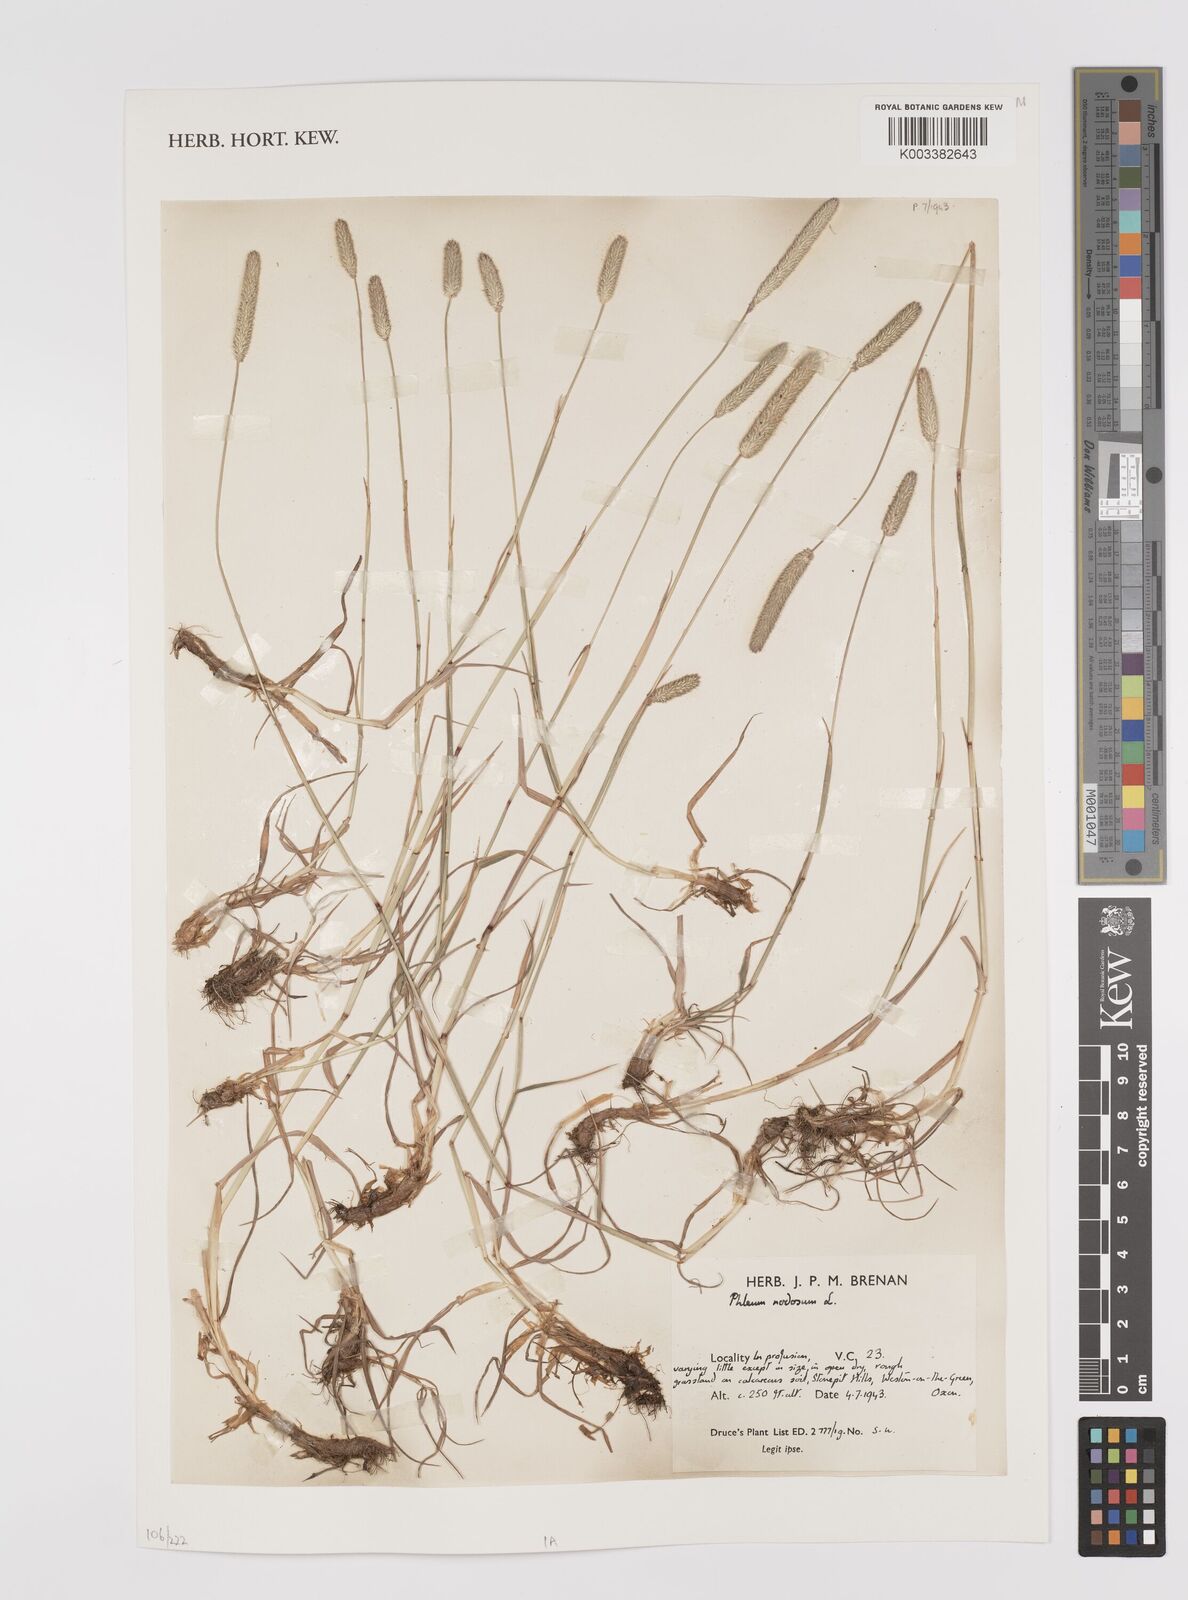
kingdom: Plantae
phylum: Tracheophyta
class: Liliopsida
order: Poales
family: Poaceae
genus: Phleum
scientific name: Phleum pratense
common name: Timothy grass
